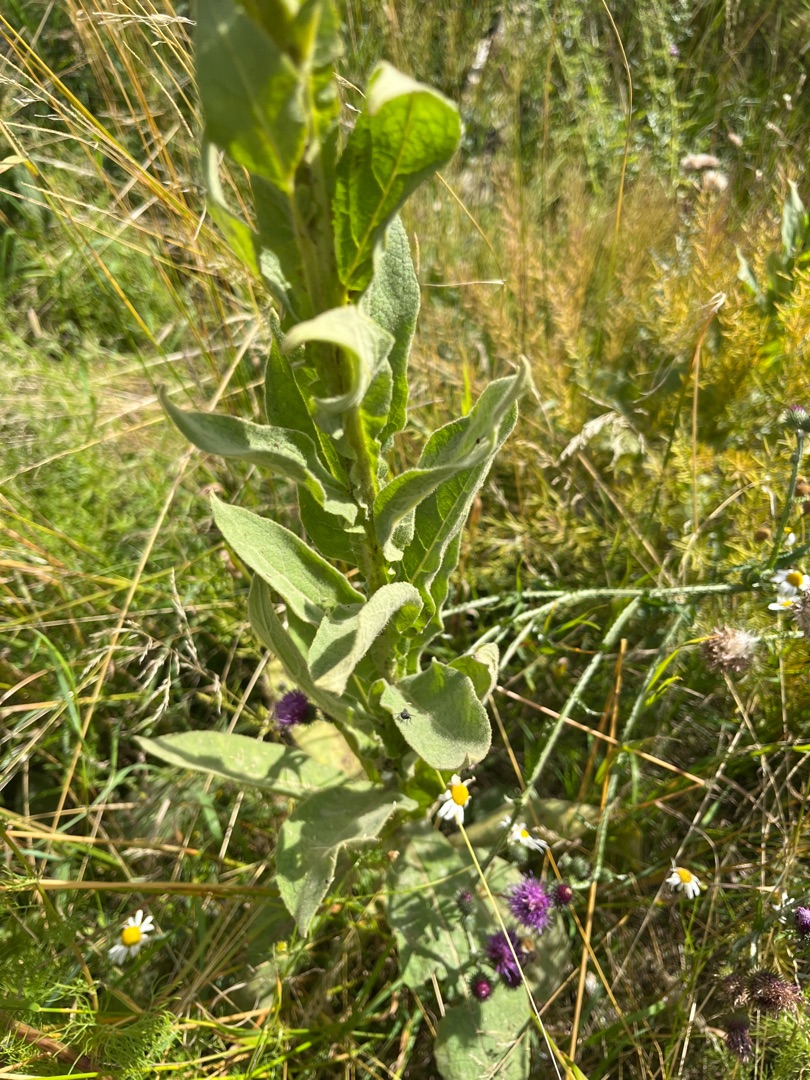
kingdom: Plantae
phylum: Tracheophyta
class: Magnoliopsida
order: Lamiales
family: Scrophulariaceae
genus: Verbascum
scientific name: Verbascum thapsus
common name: Filtbladet kongelys
